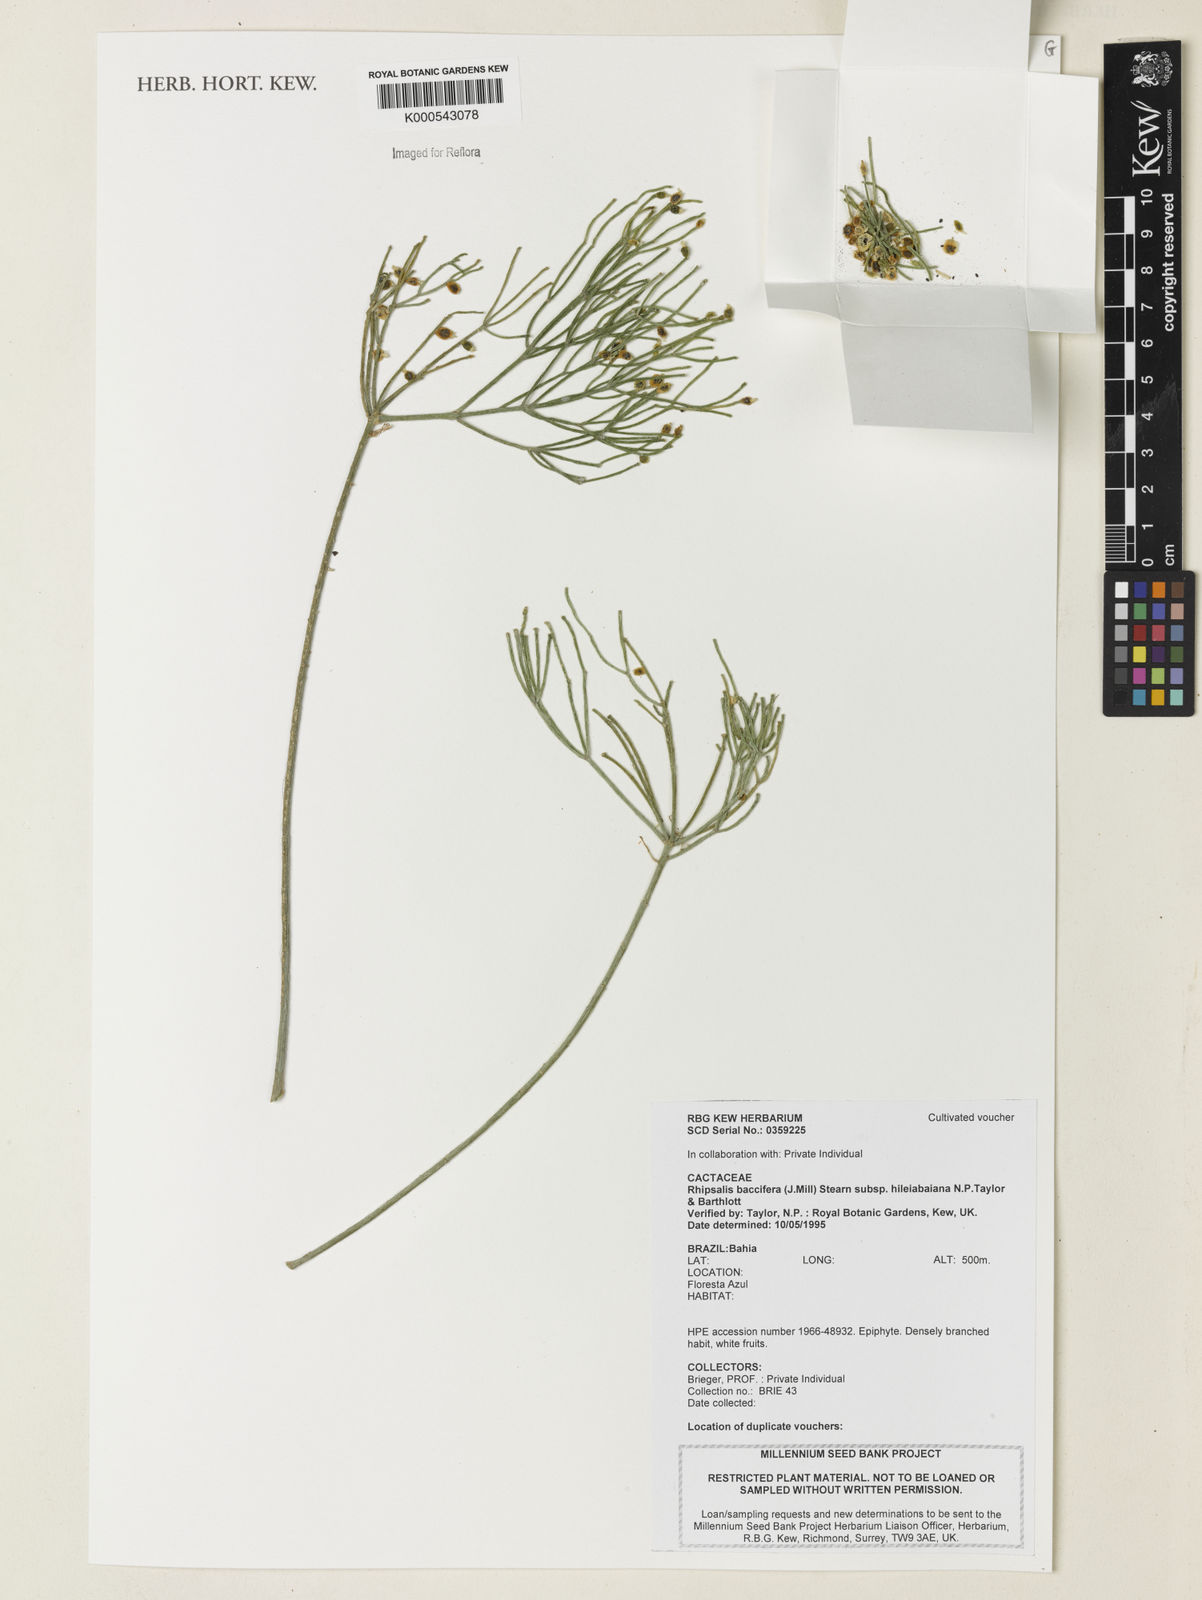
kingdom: Plantae
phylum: Tracheophyta
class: Magnoliopsida
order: Caryophyllales
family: Cactaceae
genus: Rhipsalis
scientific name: Rhipsalis hileiabaiana
